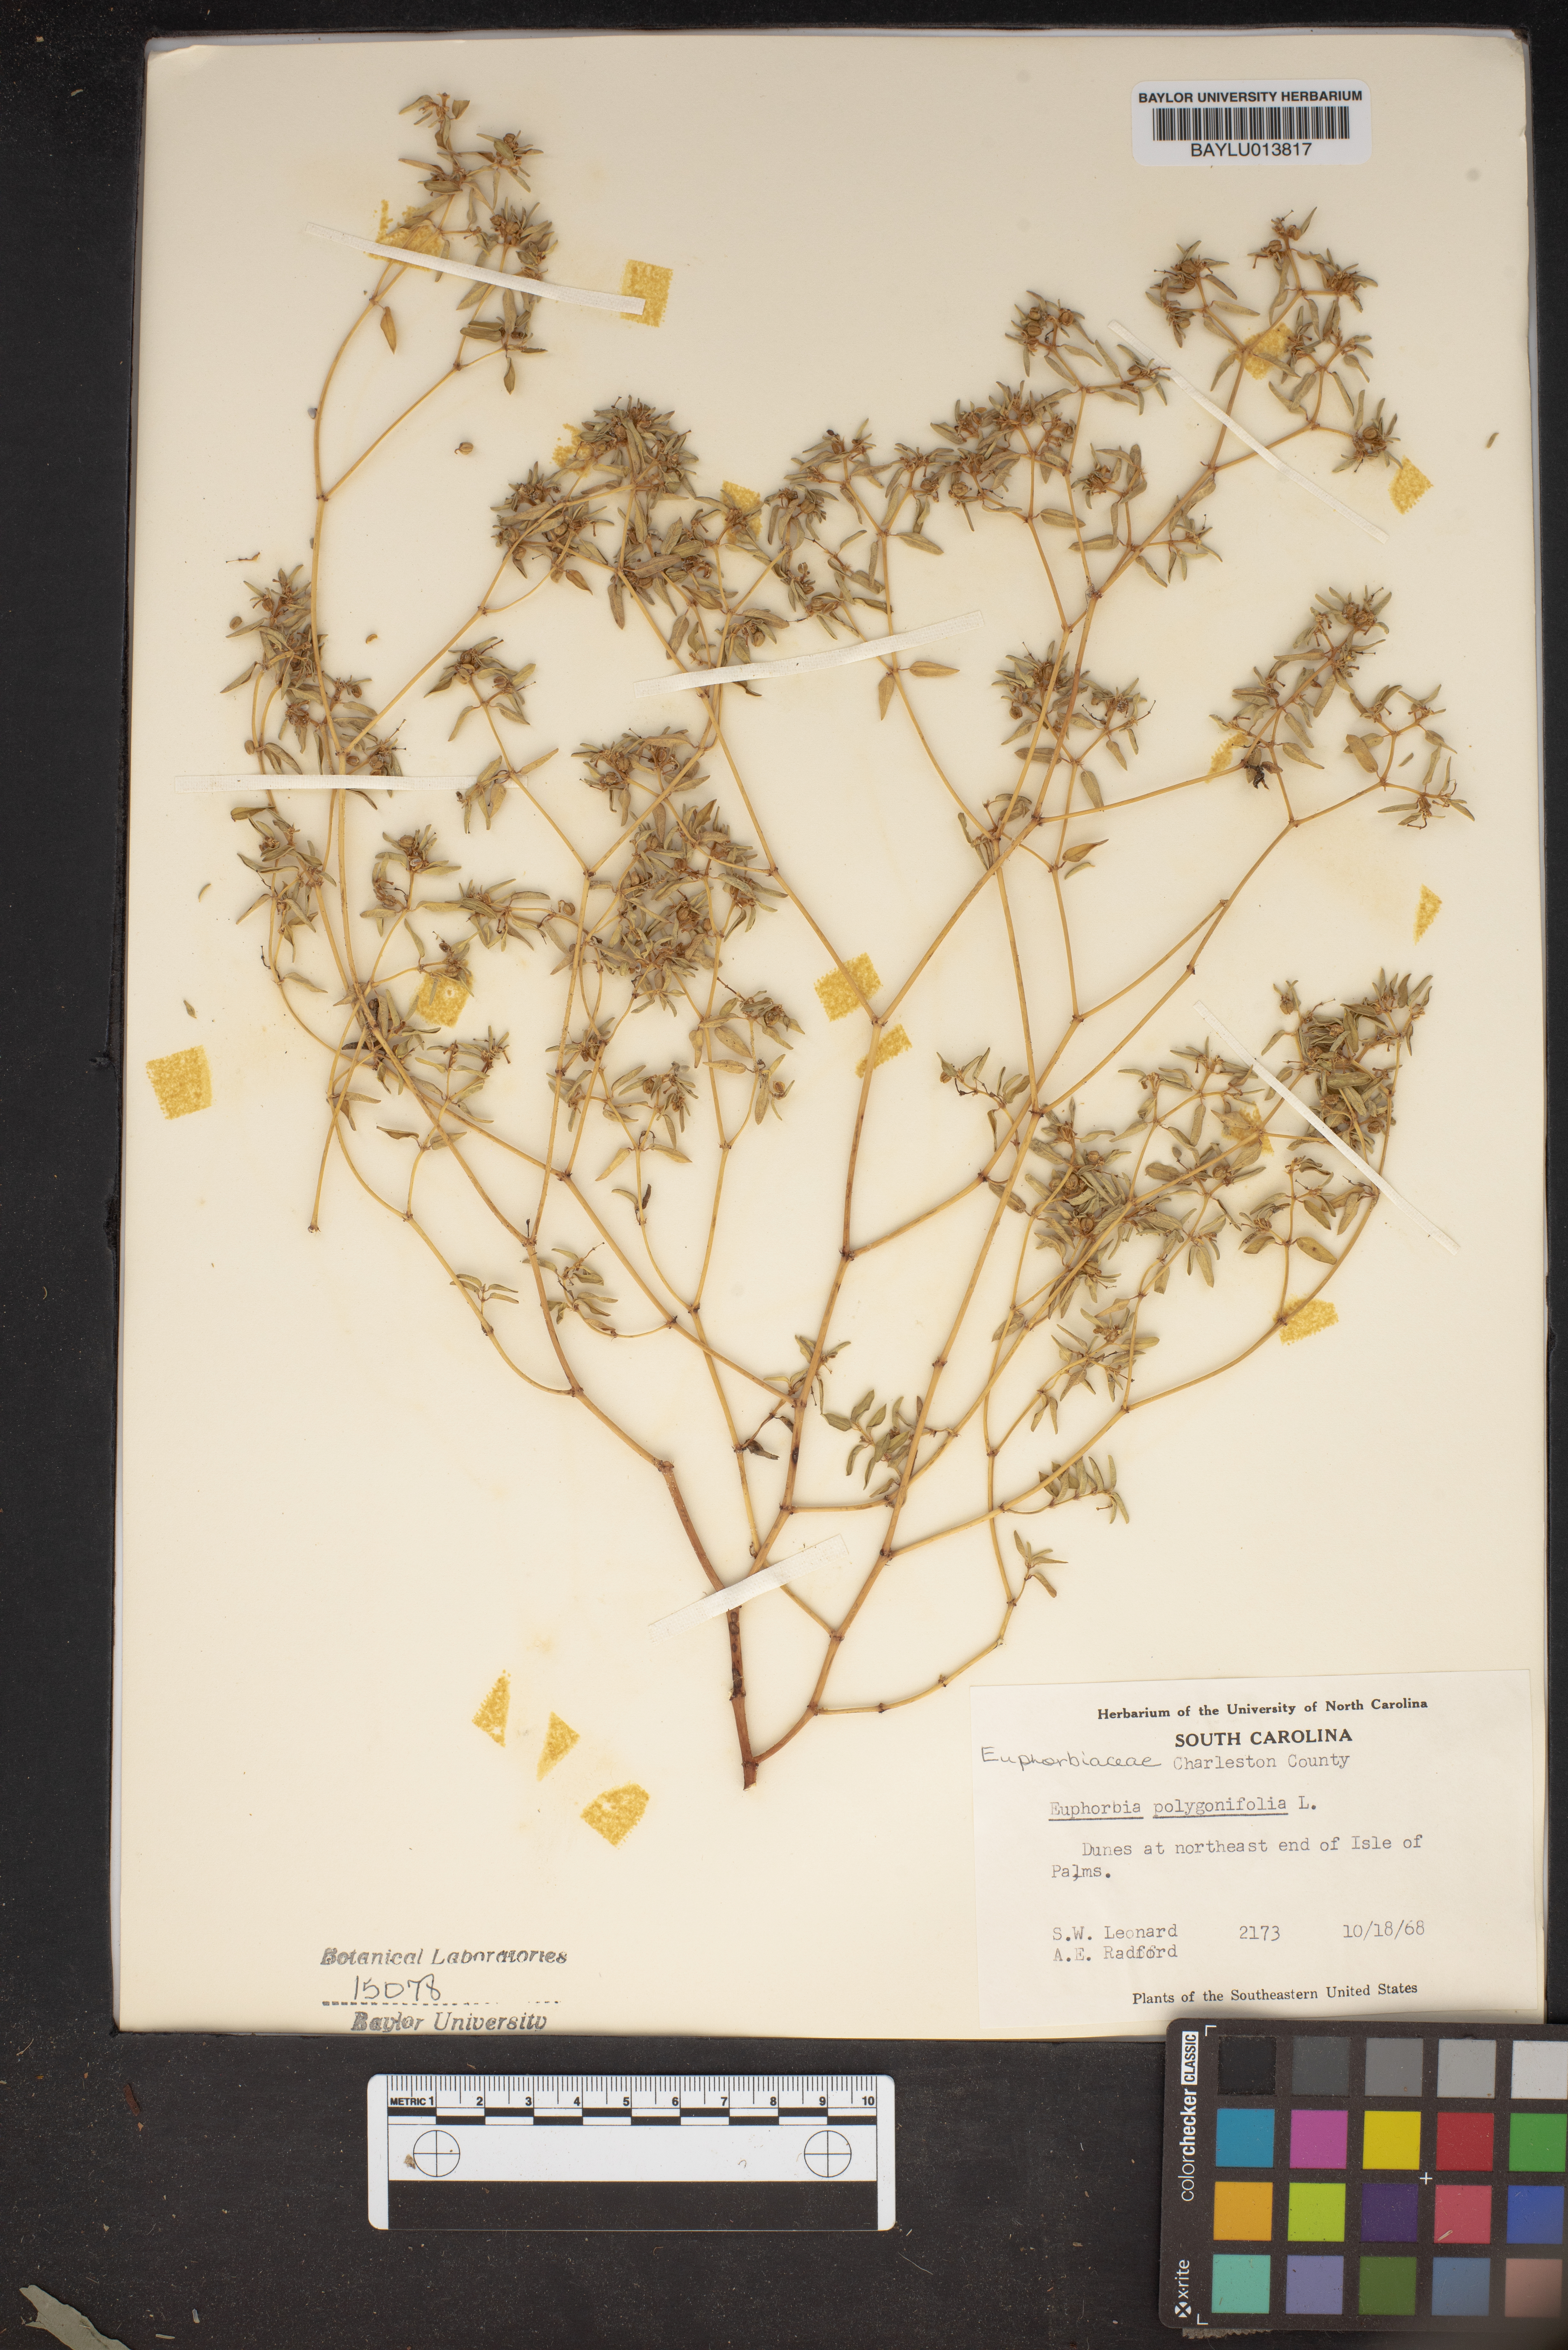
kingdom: Plantae
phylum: Tracheophyta
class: Magnoliopsida
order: Malpighiales
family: Euphorbiaceae
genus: Euphorbia
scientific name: Euphorbia polygonifolia
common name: Knotweed spurge
